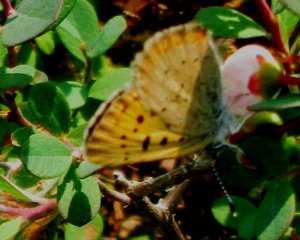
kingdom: Animalia
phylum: Arthropoda
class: Insecta
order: Lepidoptera
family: Lycaenidae
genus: Epidemia
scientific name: Epidemia dorcas
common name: Dorcas Copper
